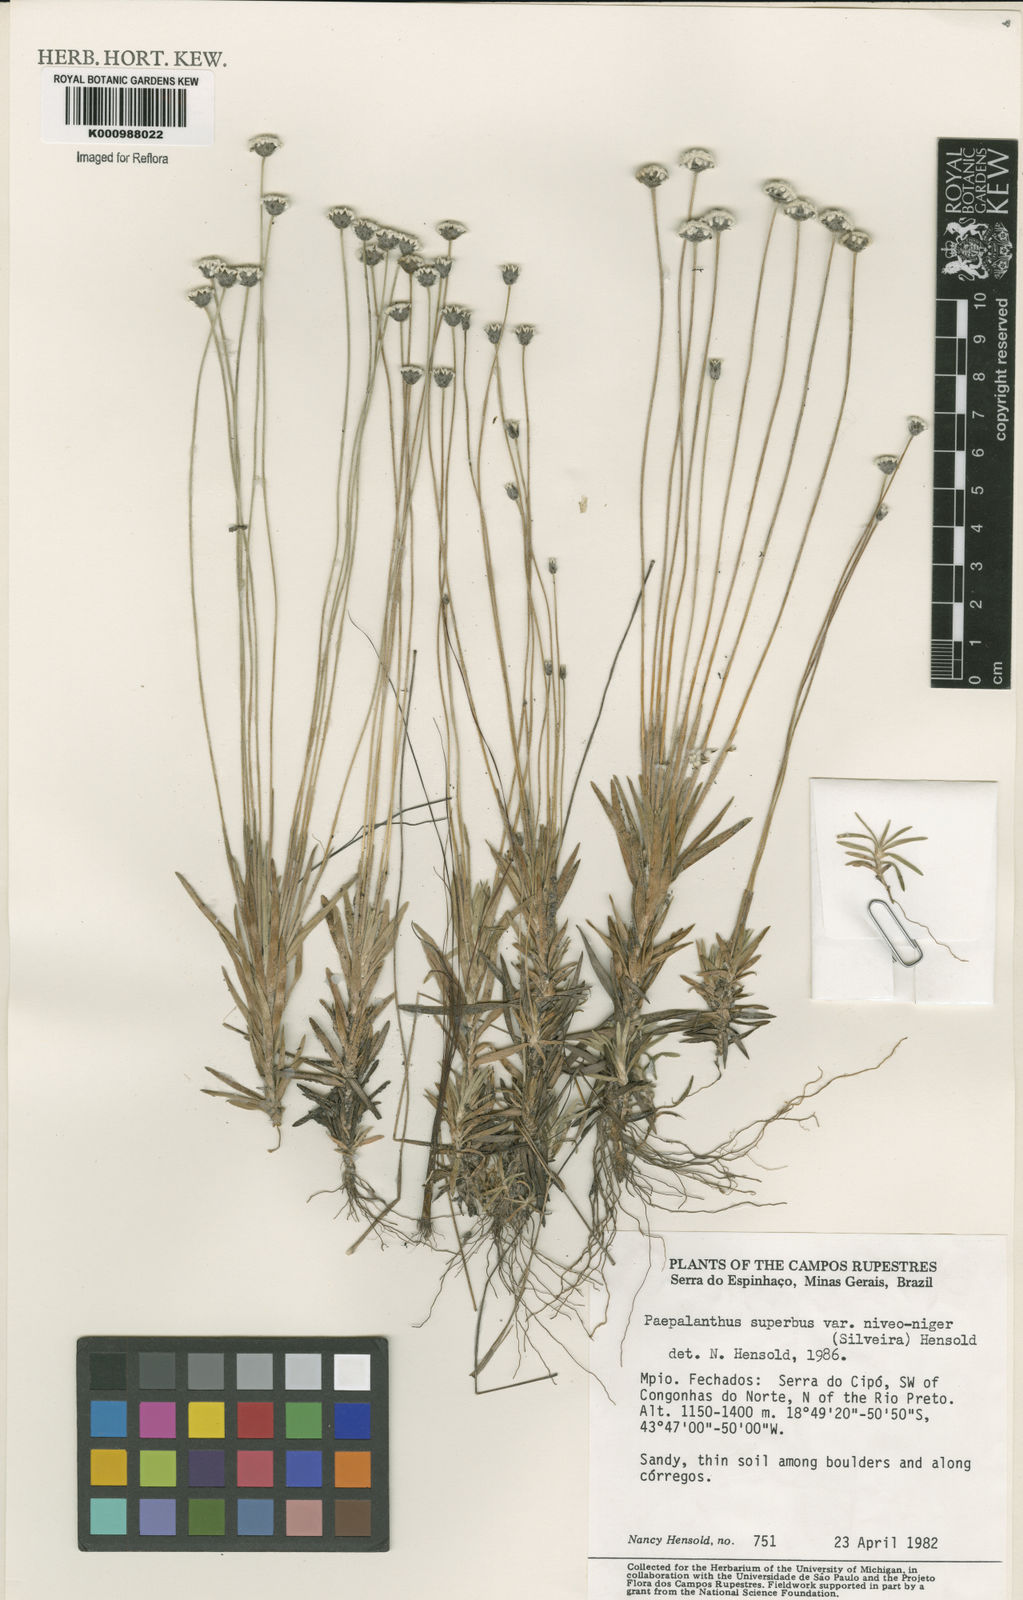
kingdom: Plantae
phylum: Tracheophyta
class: Liliopsida
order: Poales
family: Eriocaulaceae
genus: Paepalanthus
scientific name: Paepalanthus superbus
